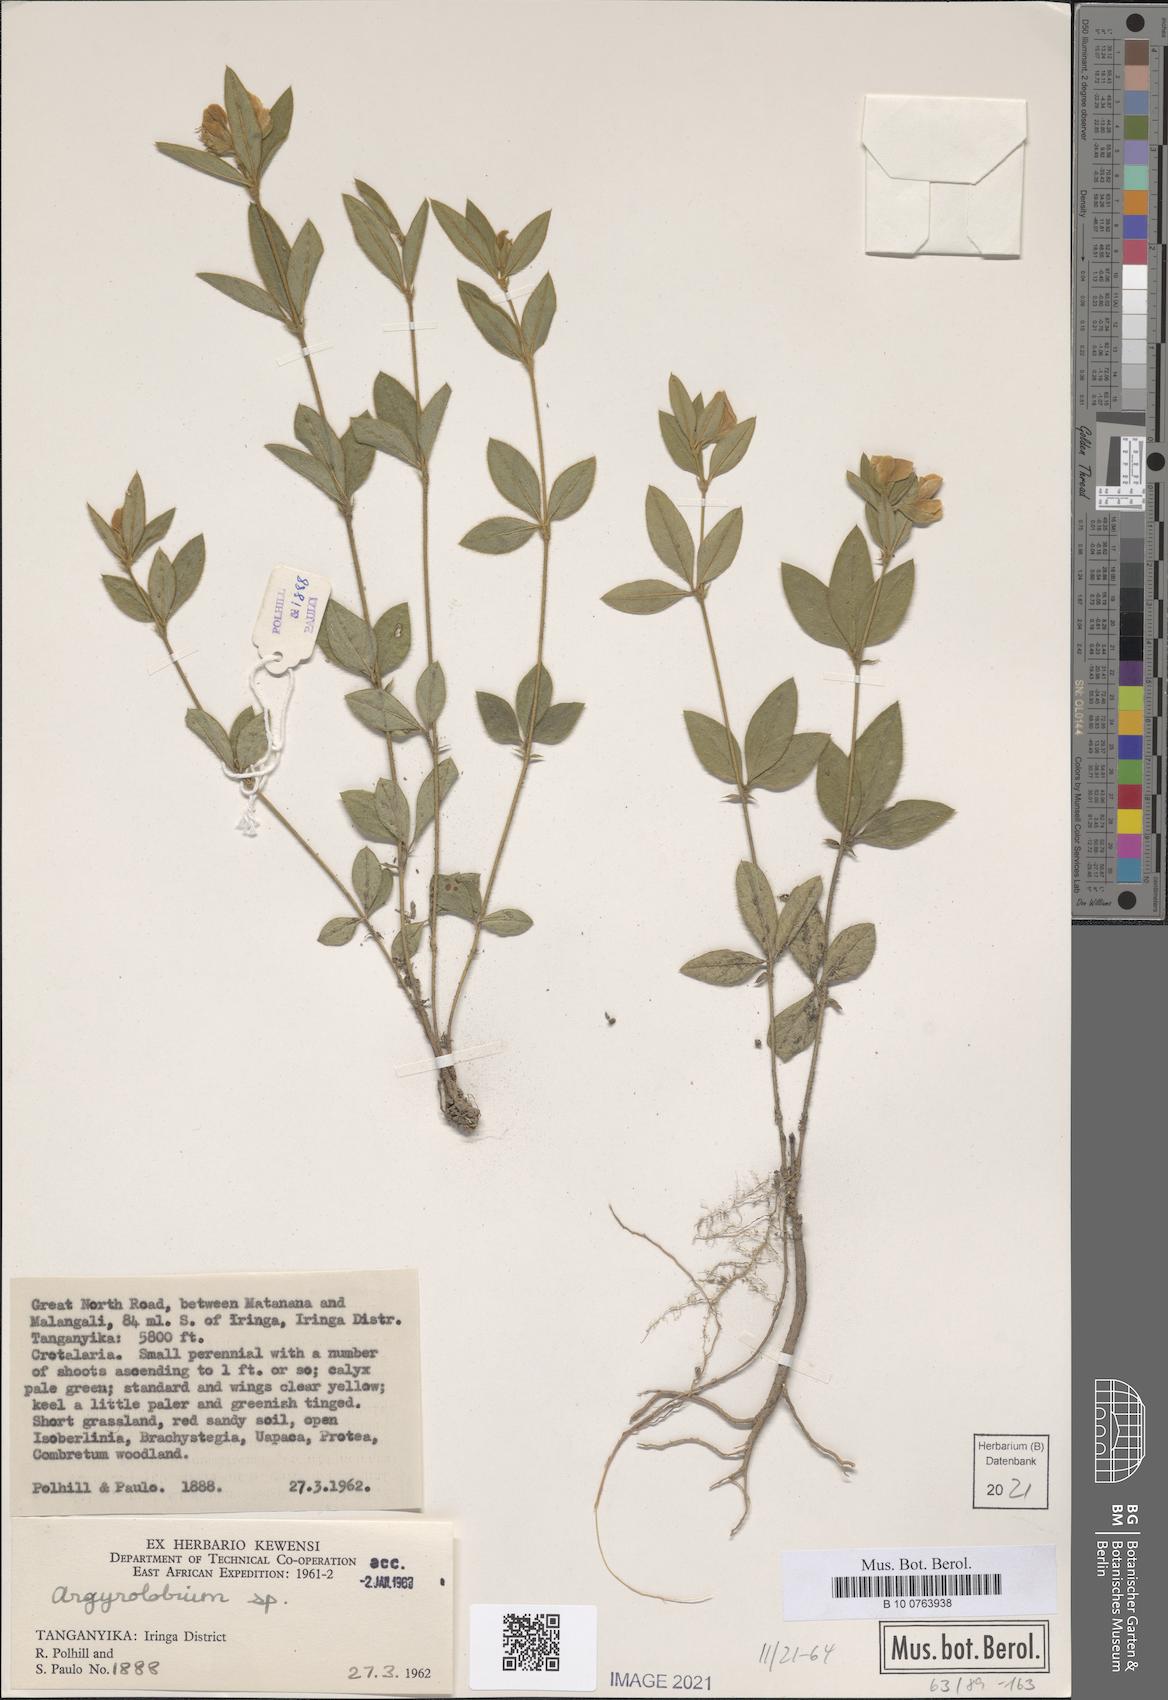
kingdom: Plantae
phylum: Tracheophyta
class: Magnoliopsida
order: Fabales
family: Fabaceae
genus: Argyrolobium
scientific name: Argyrolobium
